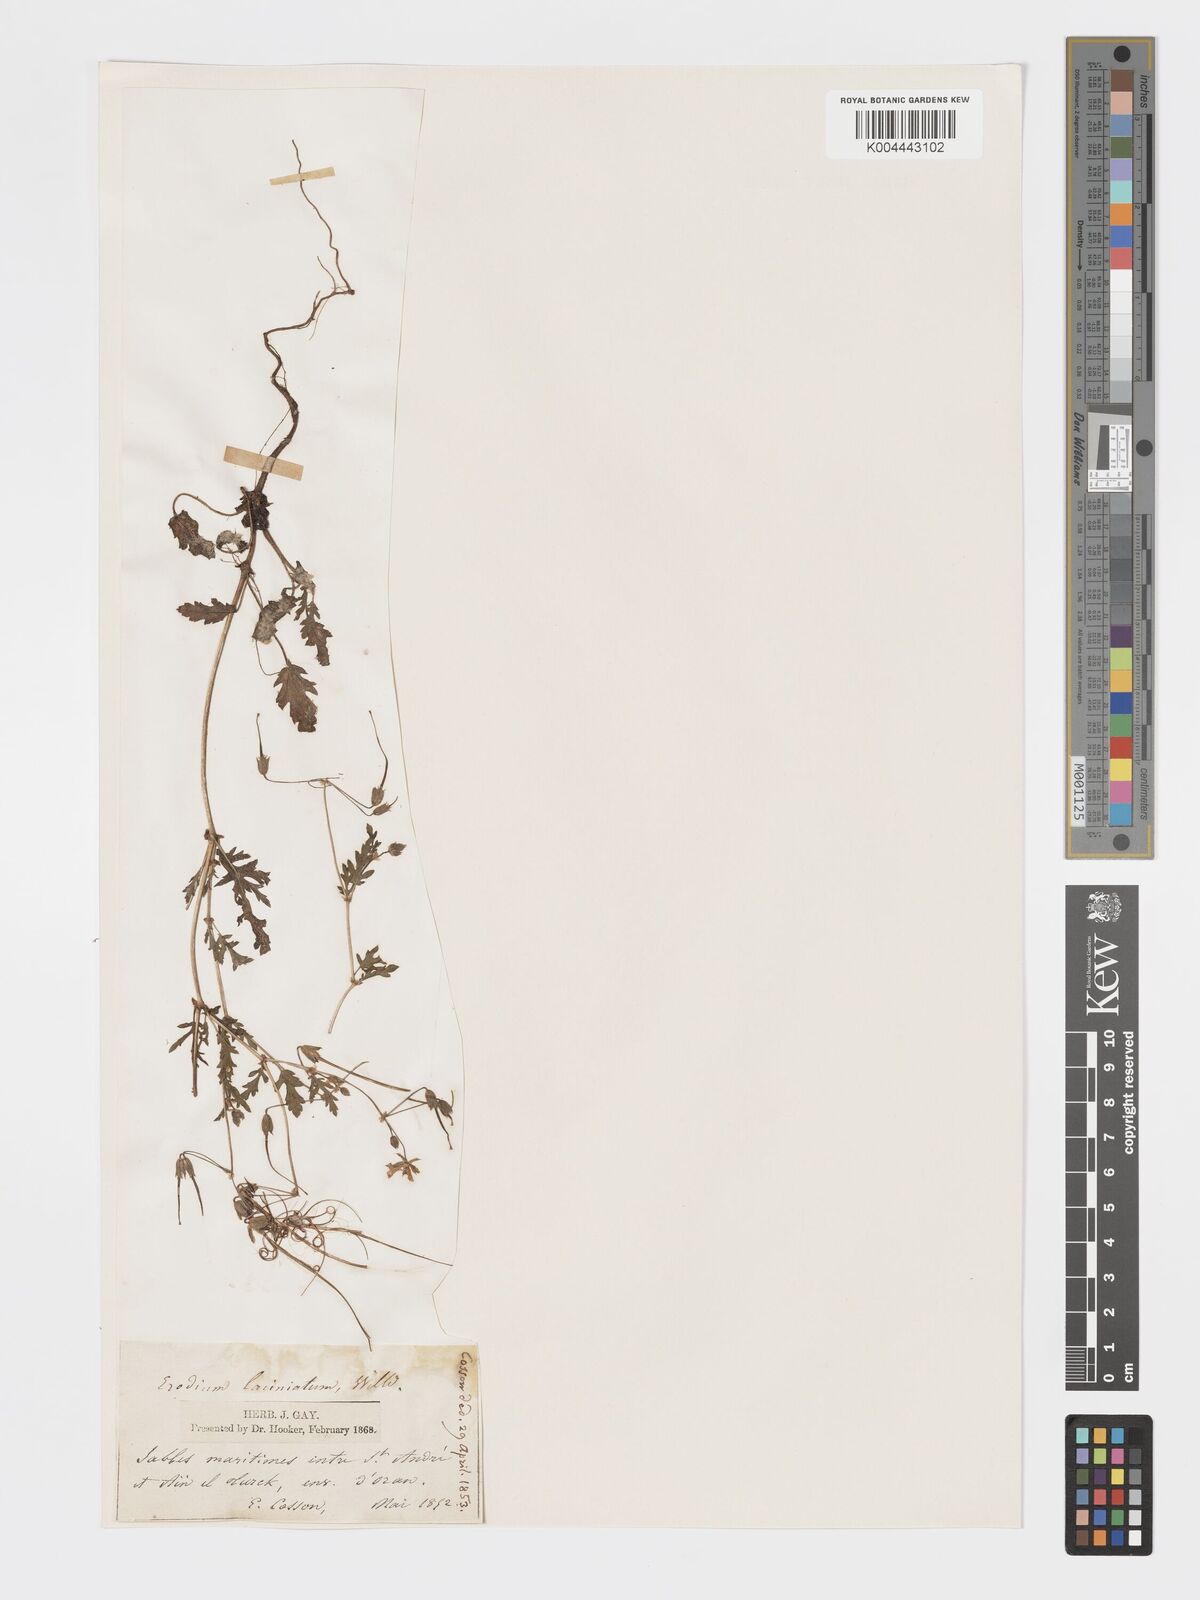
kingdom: Plantae
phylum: Tracheophyta
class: Magnoliopsida
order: Geraniales
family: Geraniaceae
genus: Erodium
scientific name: Erodium laciniatum
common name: Cutleaf stork's bill
